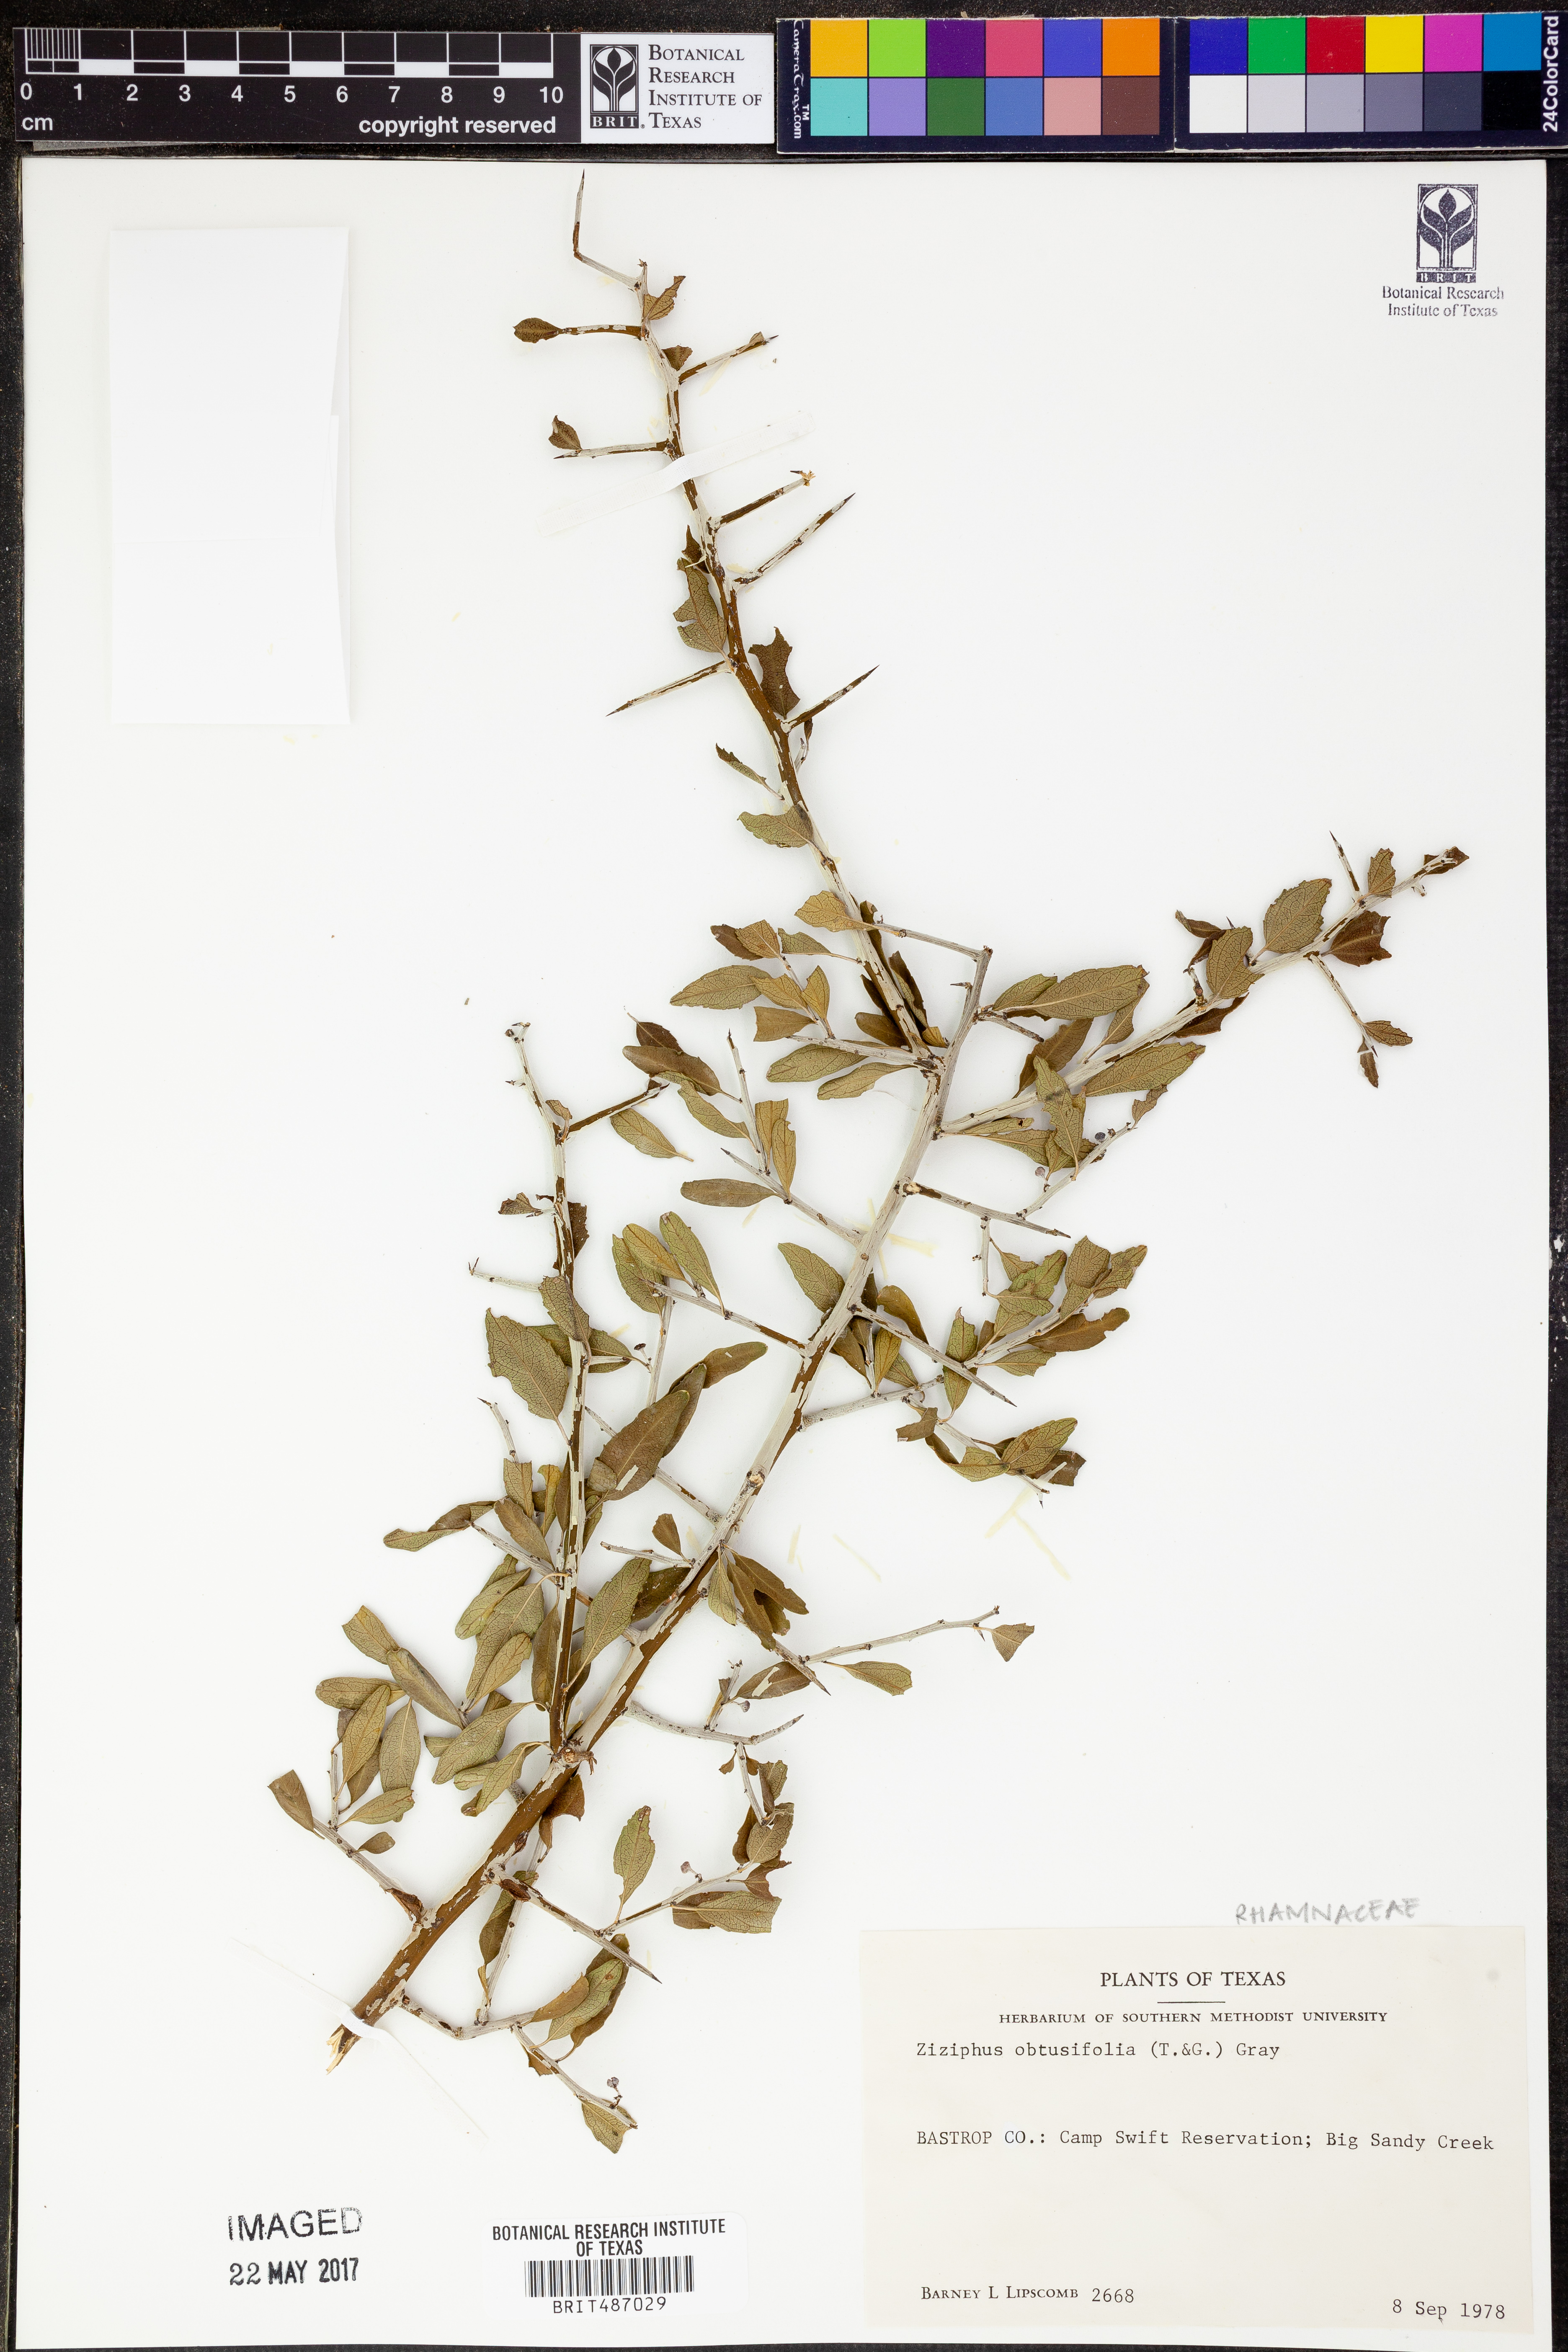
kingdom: Plantae
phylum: Tracheophyta
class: Magnoliopsida
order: Rosales
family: Rhamnaceae
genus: Sarcomphalus
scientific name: Sarcomphalus obtusifolius
